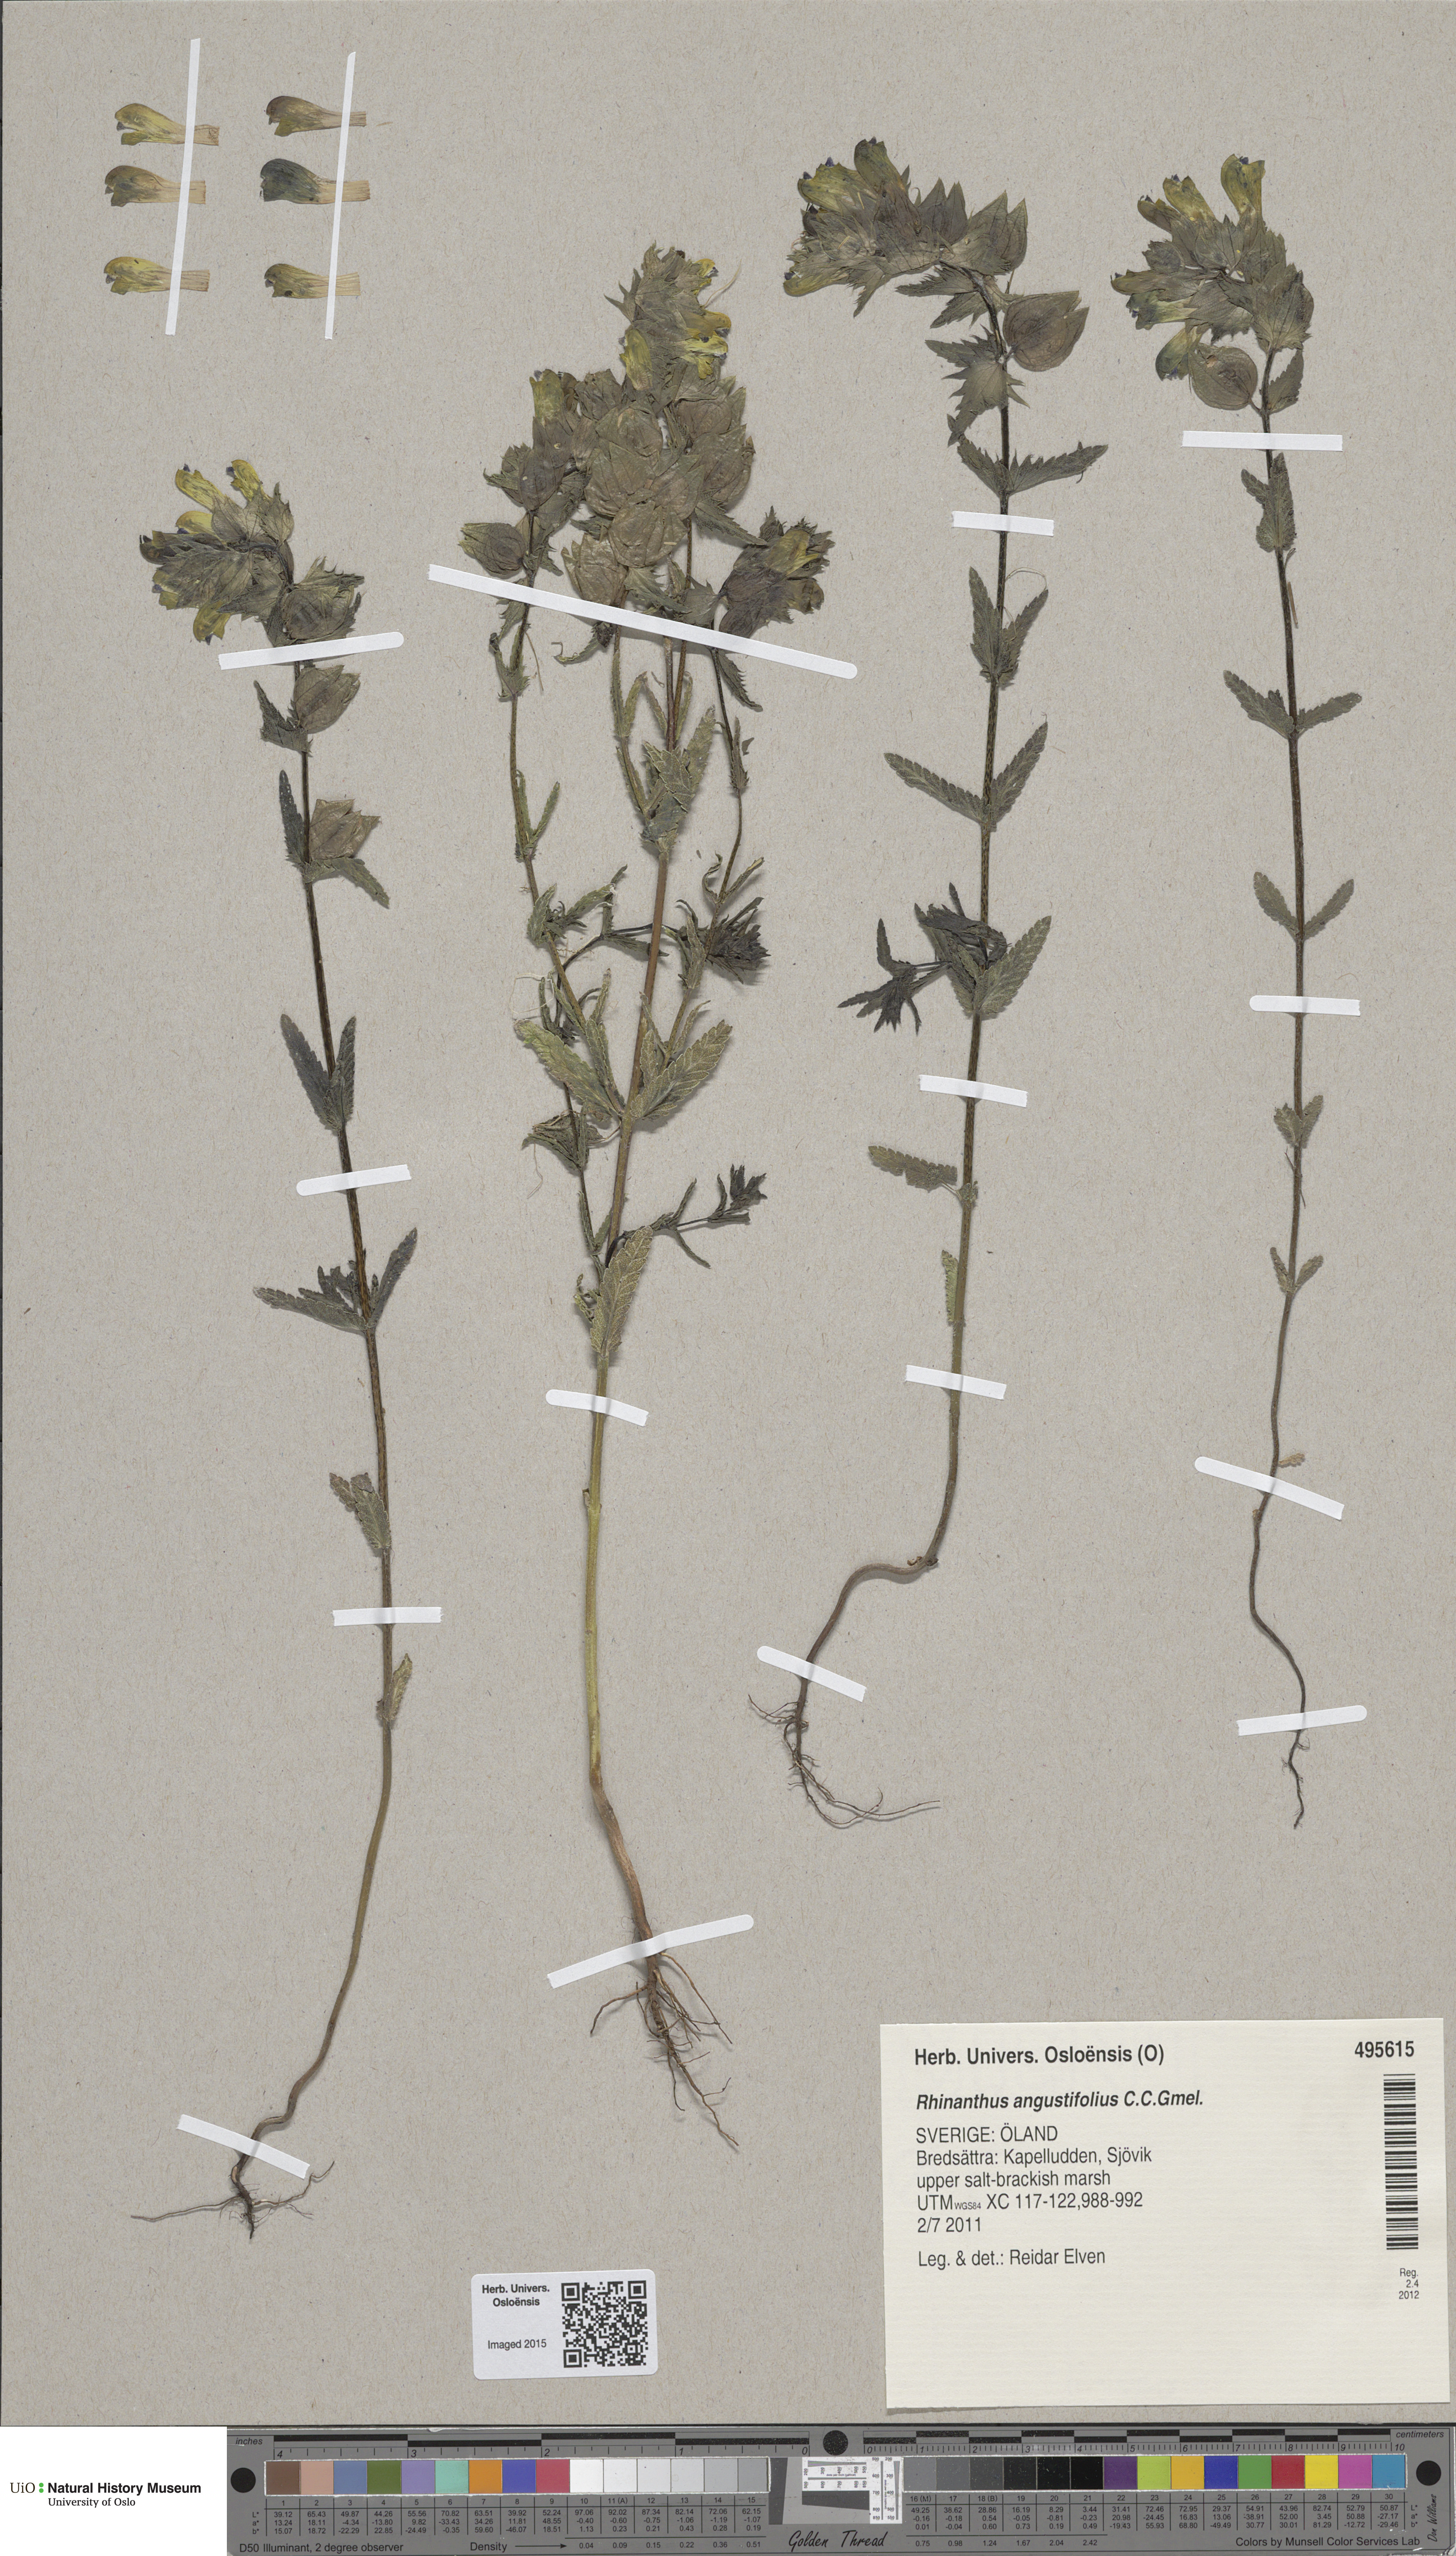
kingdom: Plantae
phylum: Tracheophyta
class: Magnoliopsida
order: Lamiales
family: Orobanchaceae
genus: Rhinanthus
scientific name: Rhinanthus serotinus
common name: Late-flowering yellow rattle
